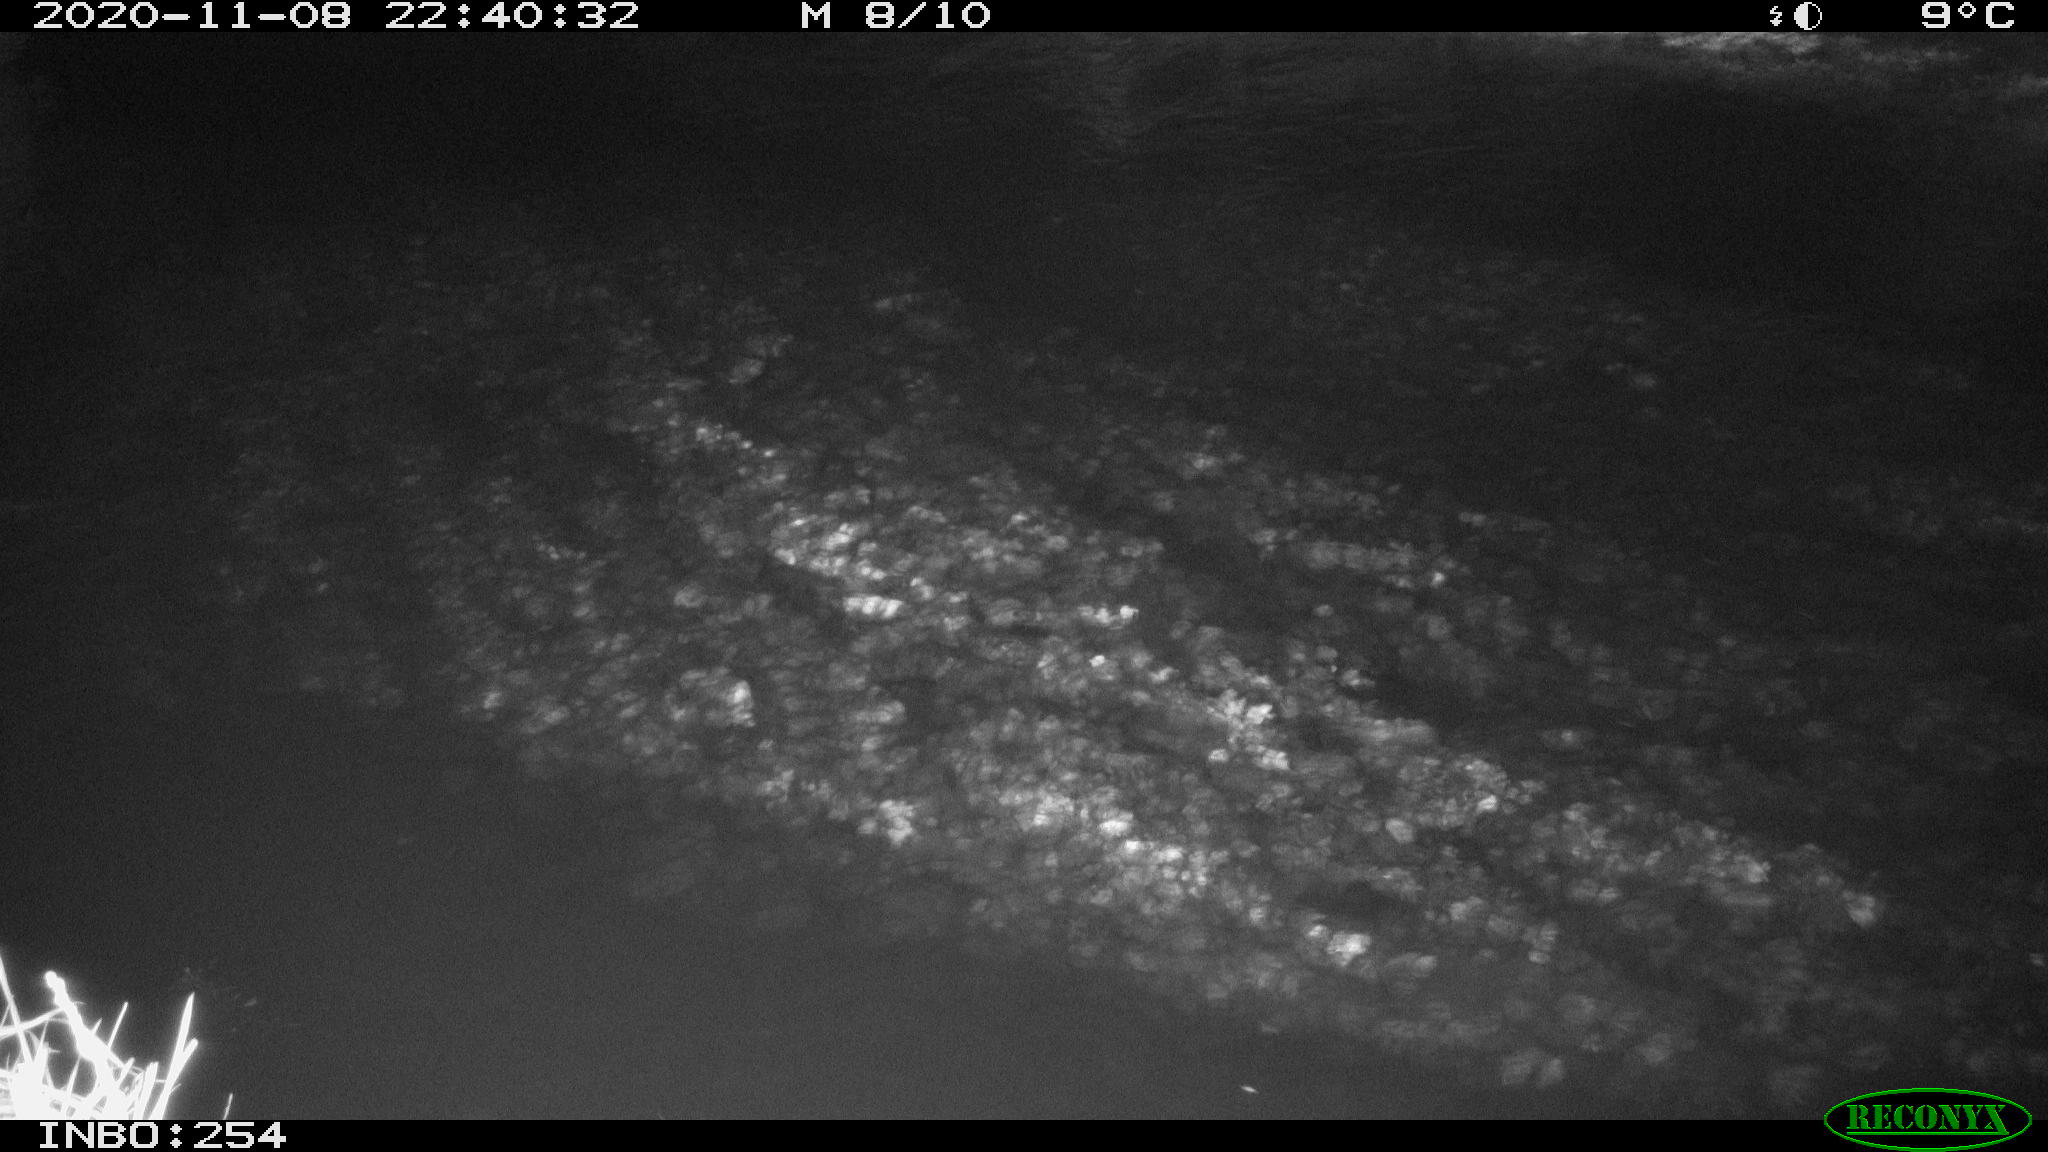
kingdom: Animalia
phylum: Chordata
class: Aves
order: Anseriformes
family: Anatidae
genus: Anas
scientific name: Anas platyrhynchos
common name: Mallard
